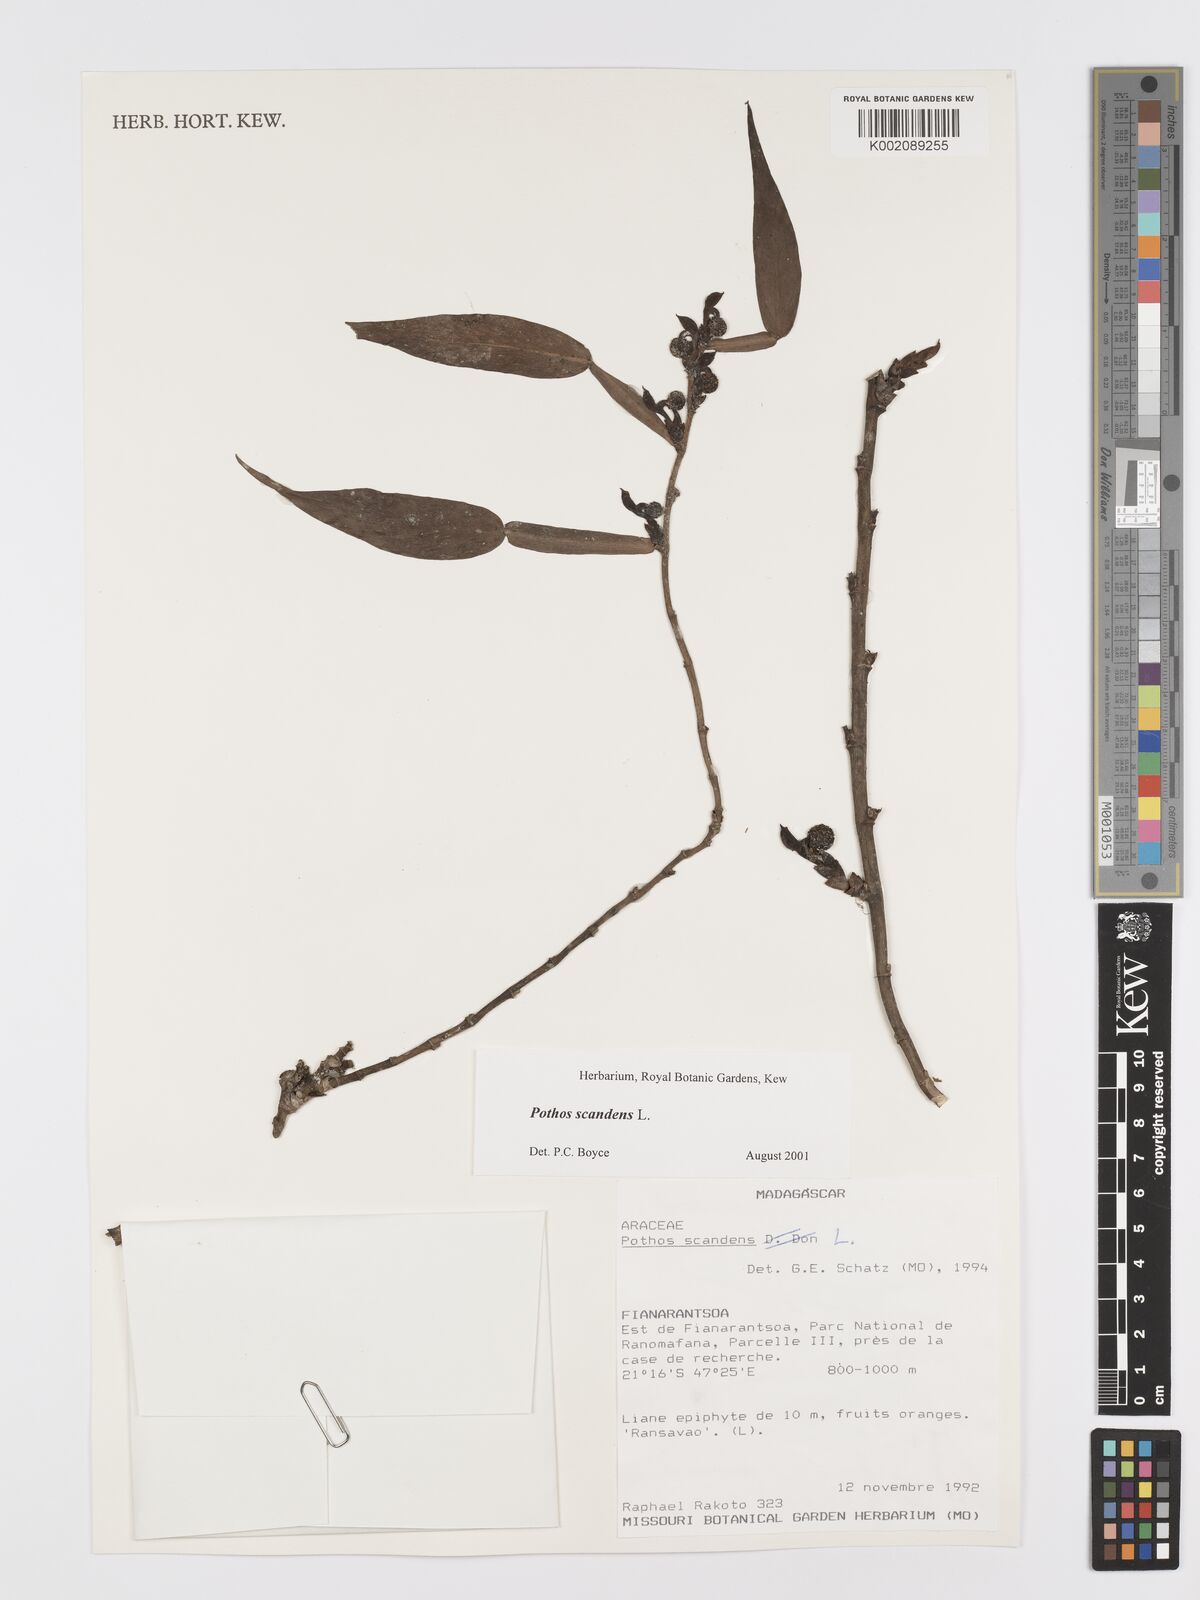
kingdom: Plantae
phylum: Tracheophyta
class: Liliopsida
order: Alismatales
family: Araceae
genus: Pothos
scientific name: Pothos scandens
